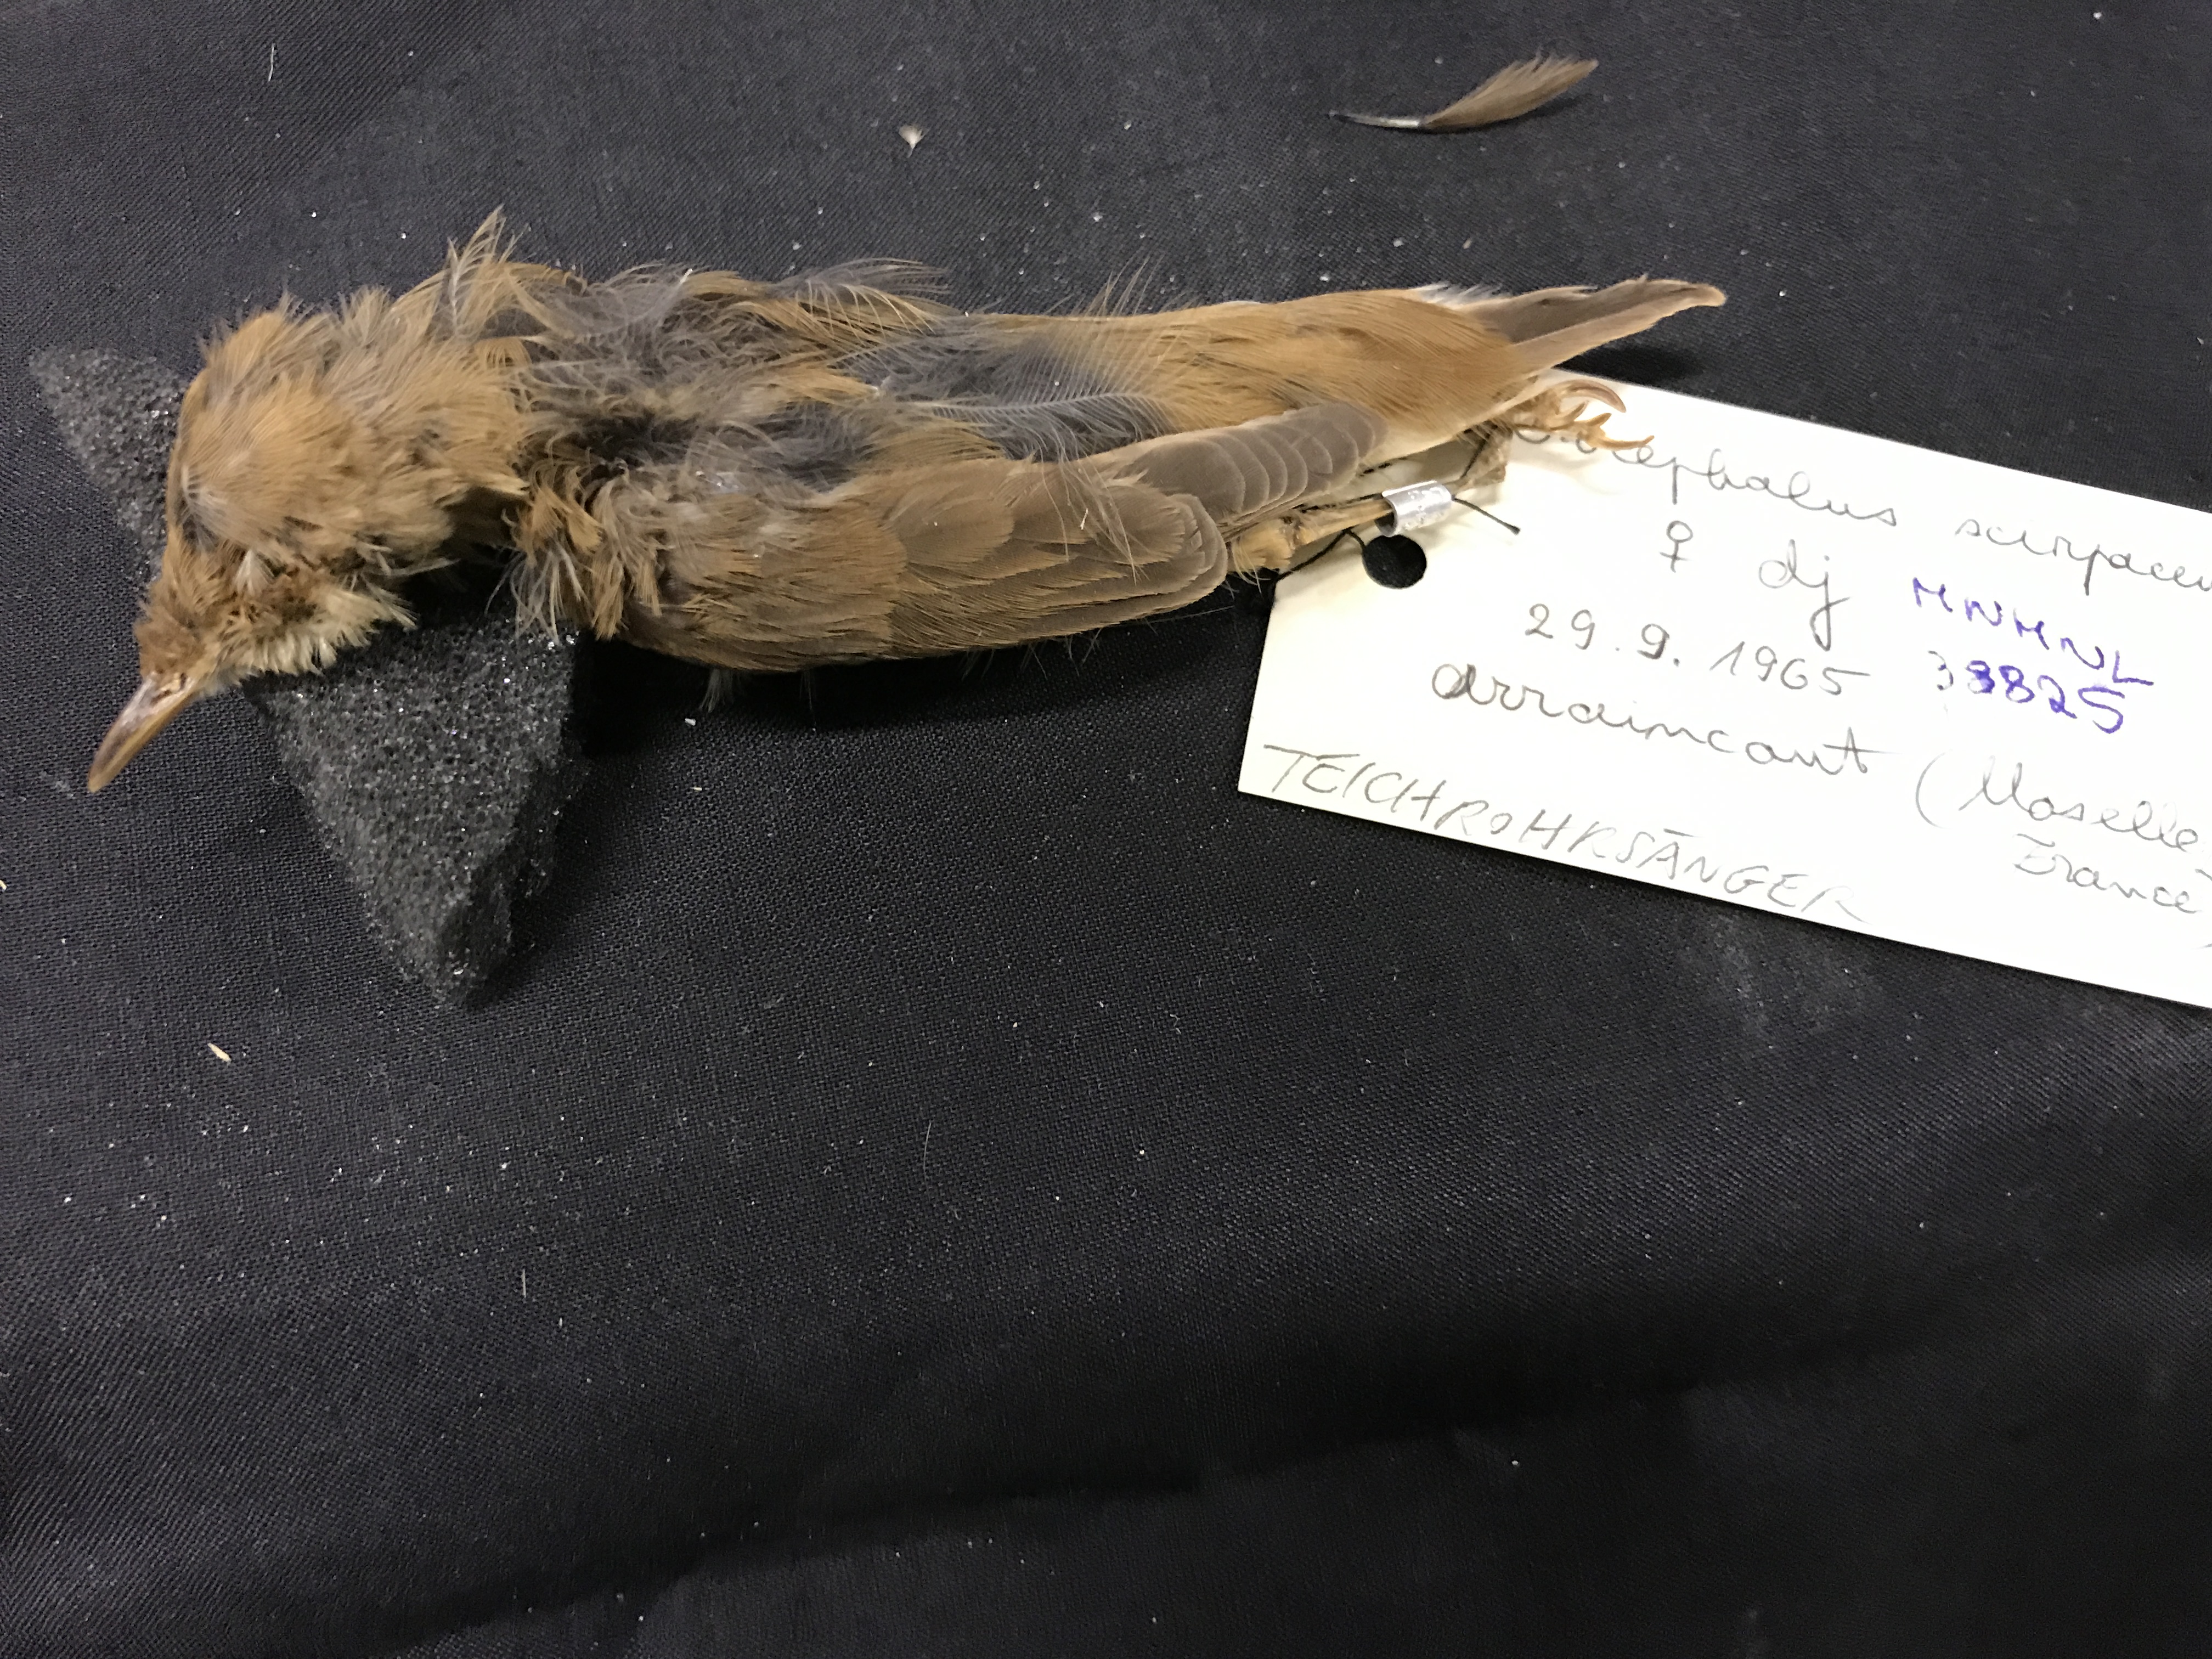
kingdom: Animalia
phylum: Chordata
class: Aves
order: Passeriformes
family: Acrocephalidae
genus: Acrocephalus
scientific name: Acrocephalus scirpaceus
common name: Eurasian reed warbler
